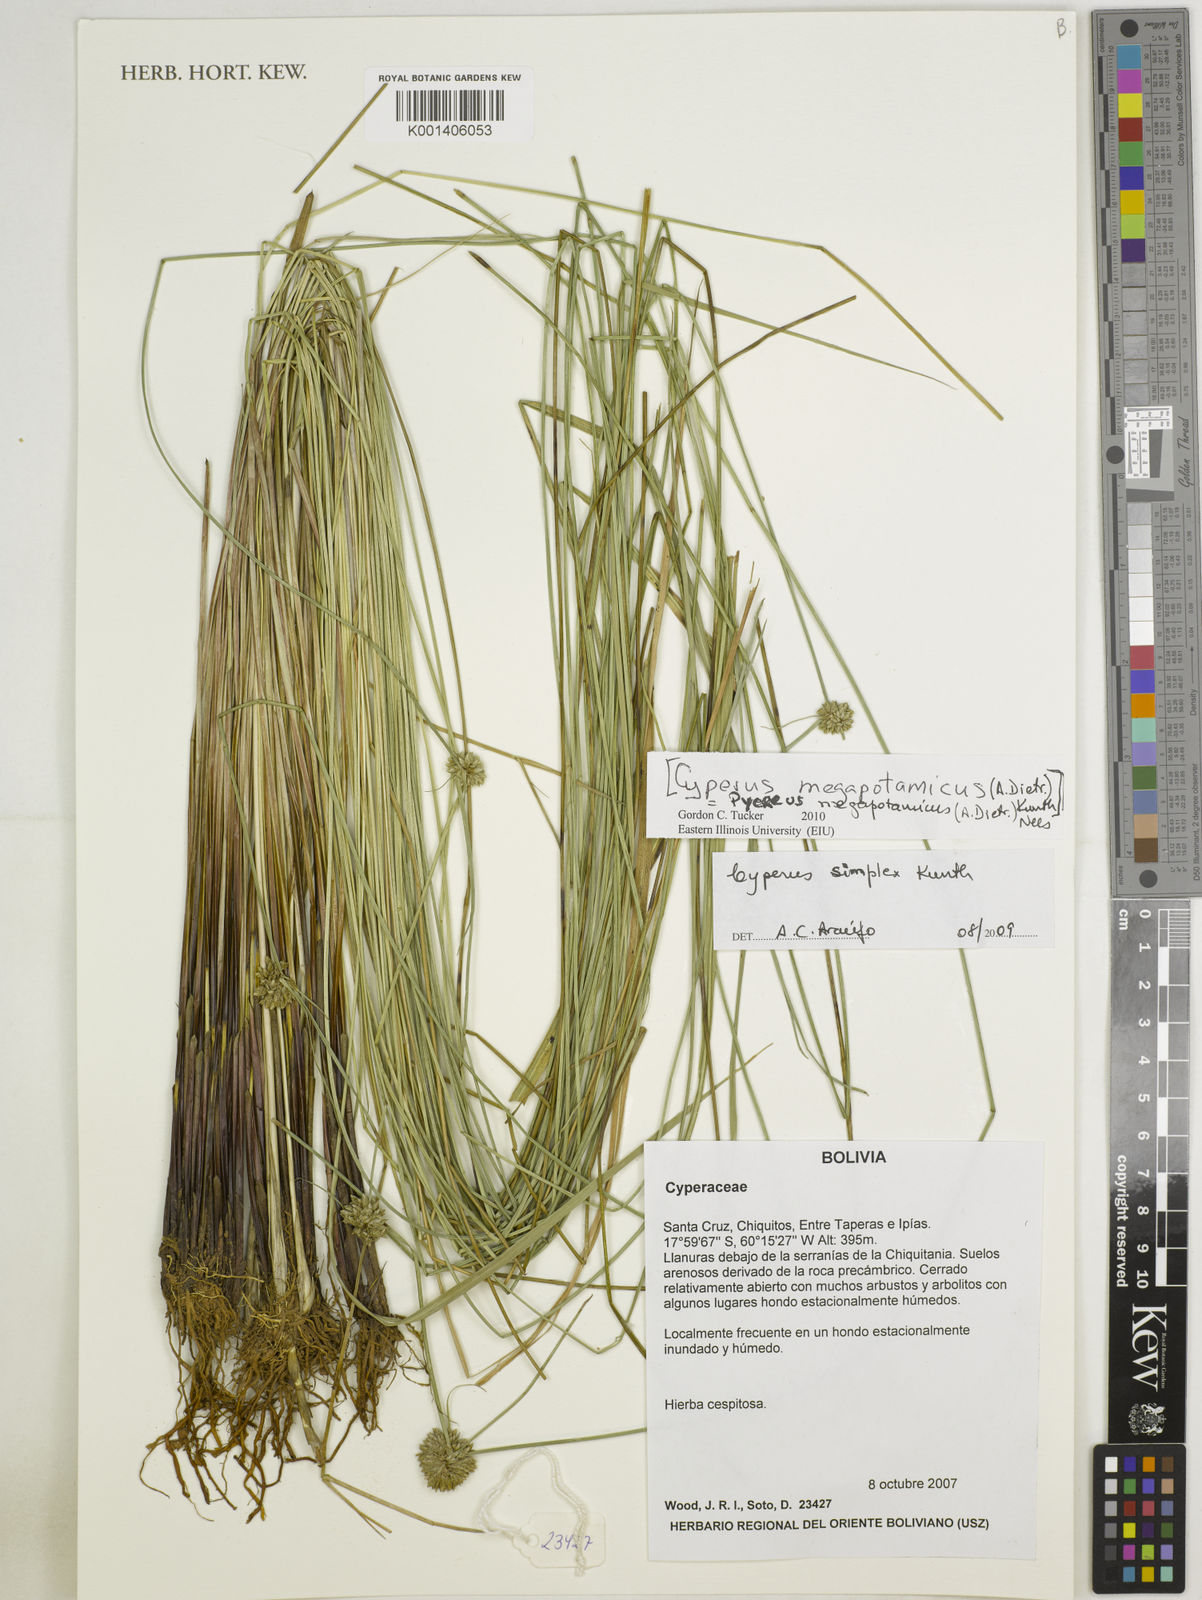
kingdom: Plantae
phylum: Tracheophyta
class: Liliopsida
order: Poales
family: Cyperaceae
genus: Cyperus
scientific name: Cyperus megapotamicus
